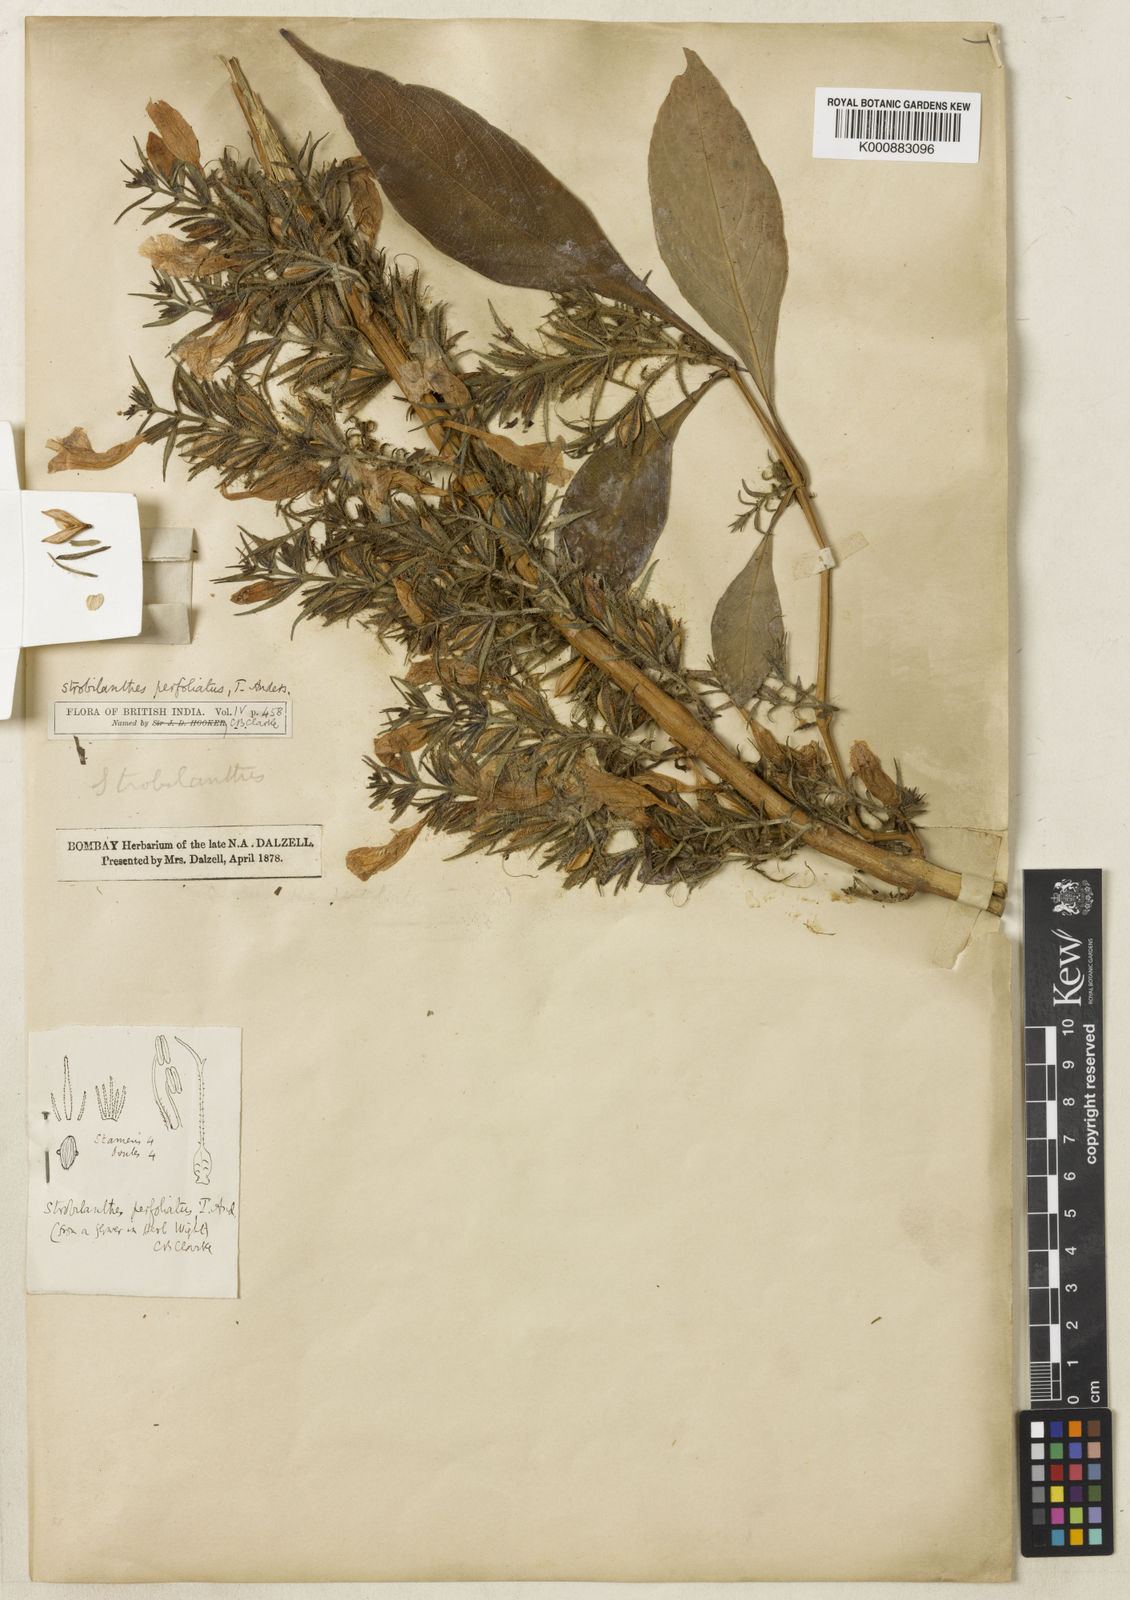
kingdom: Plantae
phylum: Tracheophyta
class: Magnoliopsida
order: Lamiales
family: Acanthaceae
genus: Strobilanthes
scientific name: Strobilanthes integrifolia
